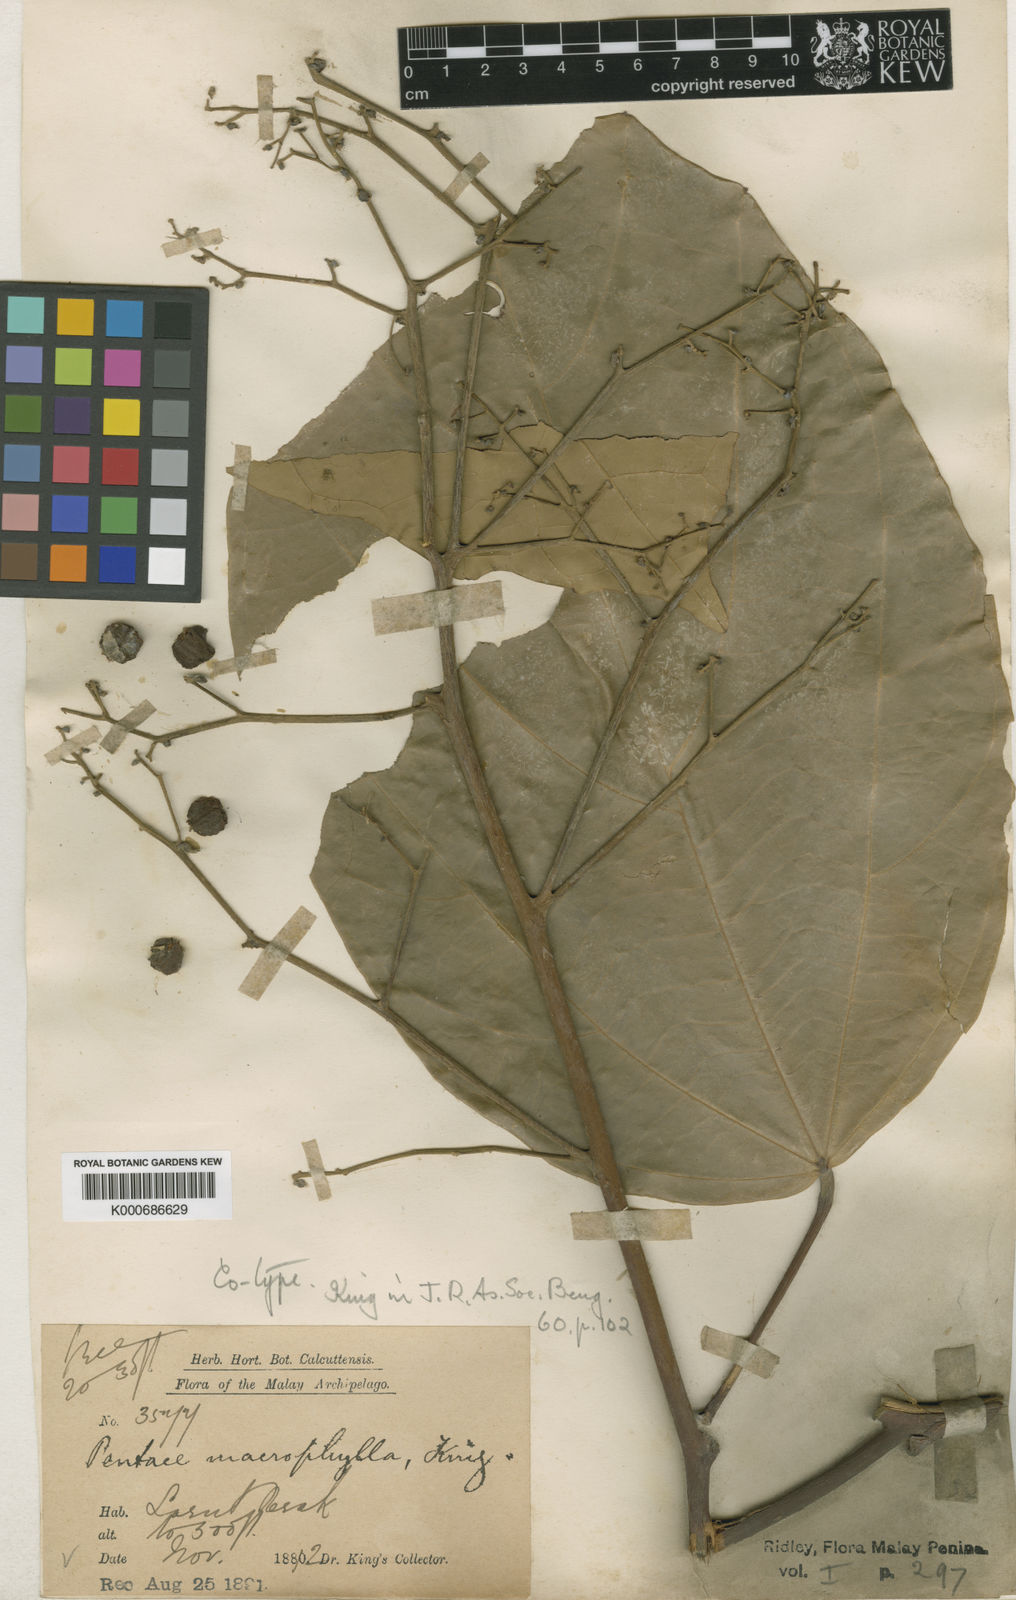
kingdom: Plantae
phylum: Tracheophyta
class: Magnoliopsida
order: Malvales
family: Malvaceae
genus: Pentace
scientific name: Pentace macrophylla
